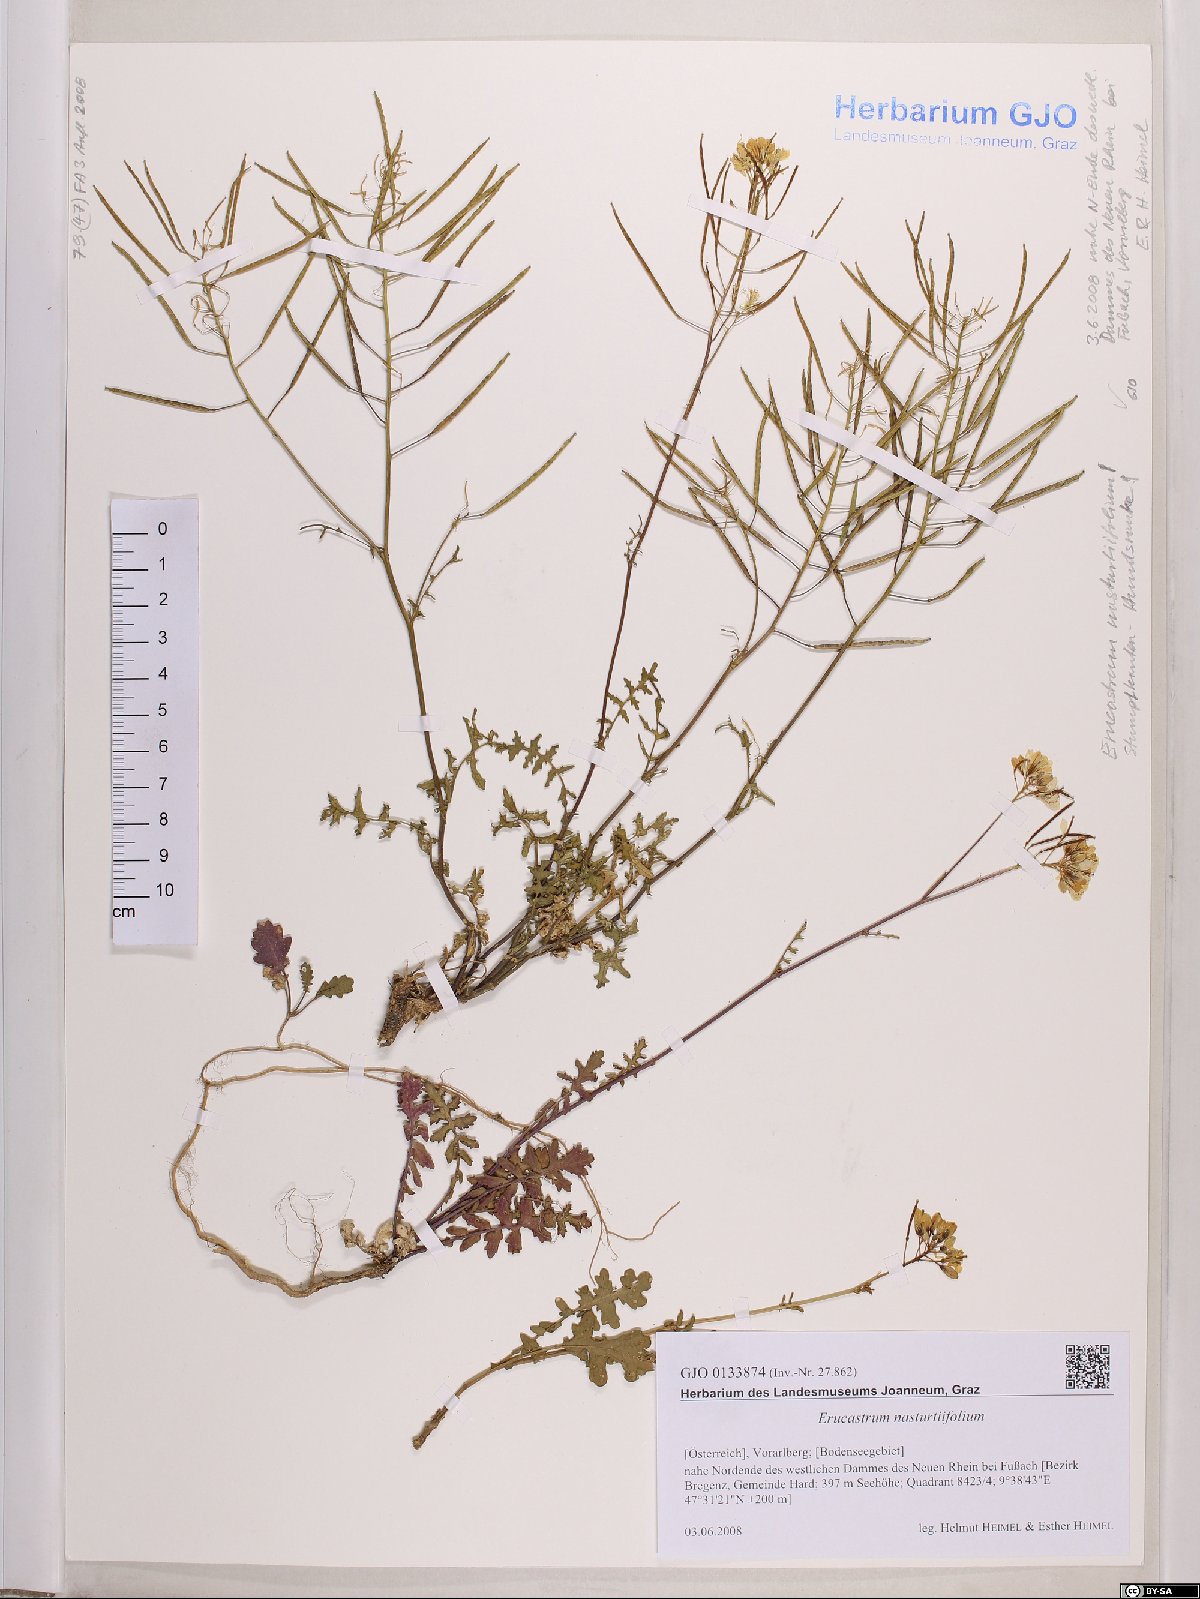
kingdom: Plantae
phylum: Tracheophyta
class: Magnoliopsida
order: Brassicales
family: Brassicaceae
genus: Erucastrum
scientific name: Erucastrum nasturtiifolium
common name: Watercress-leaf rocket
